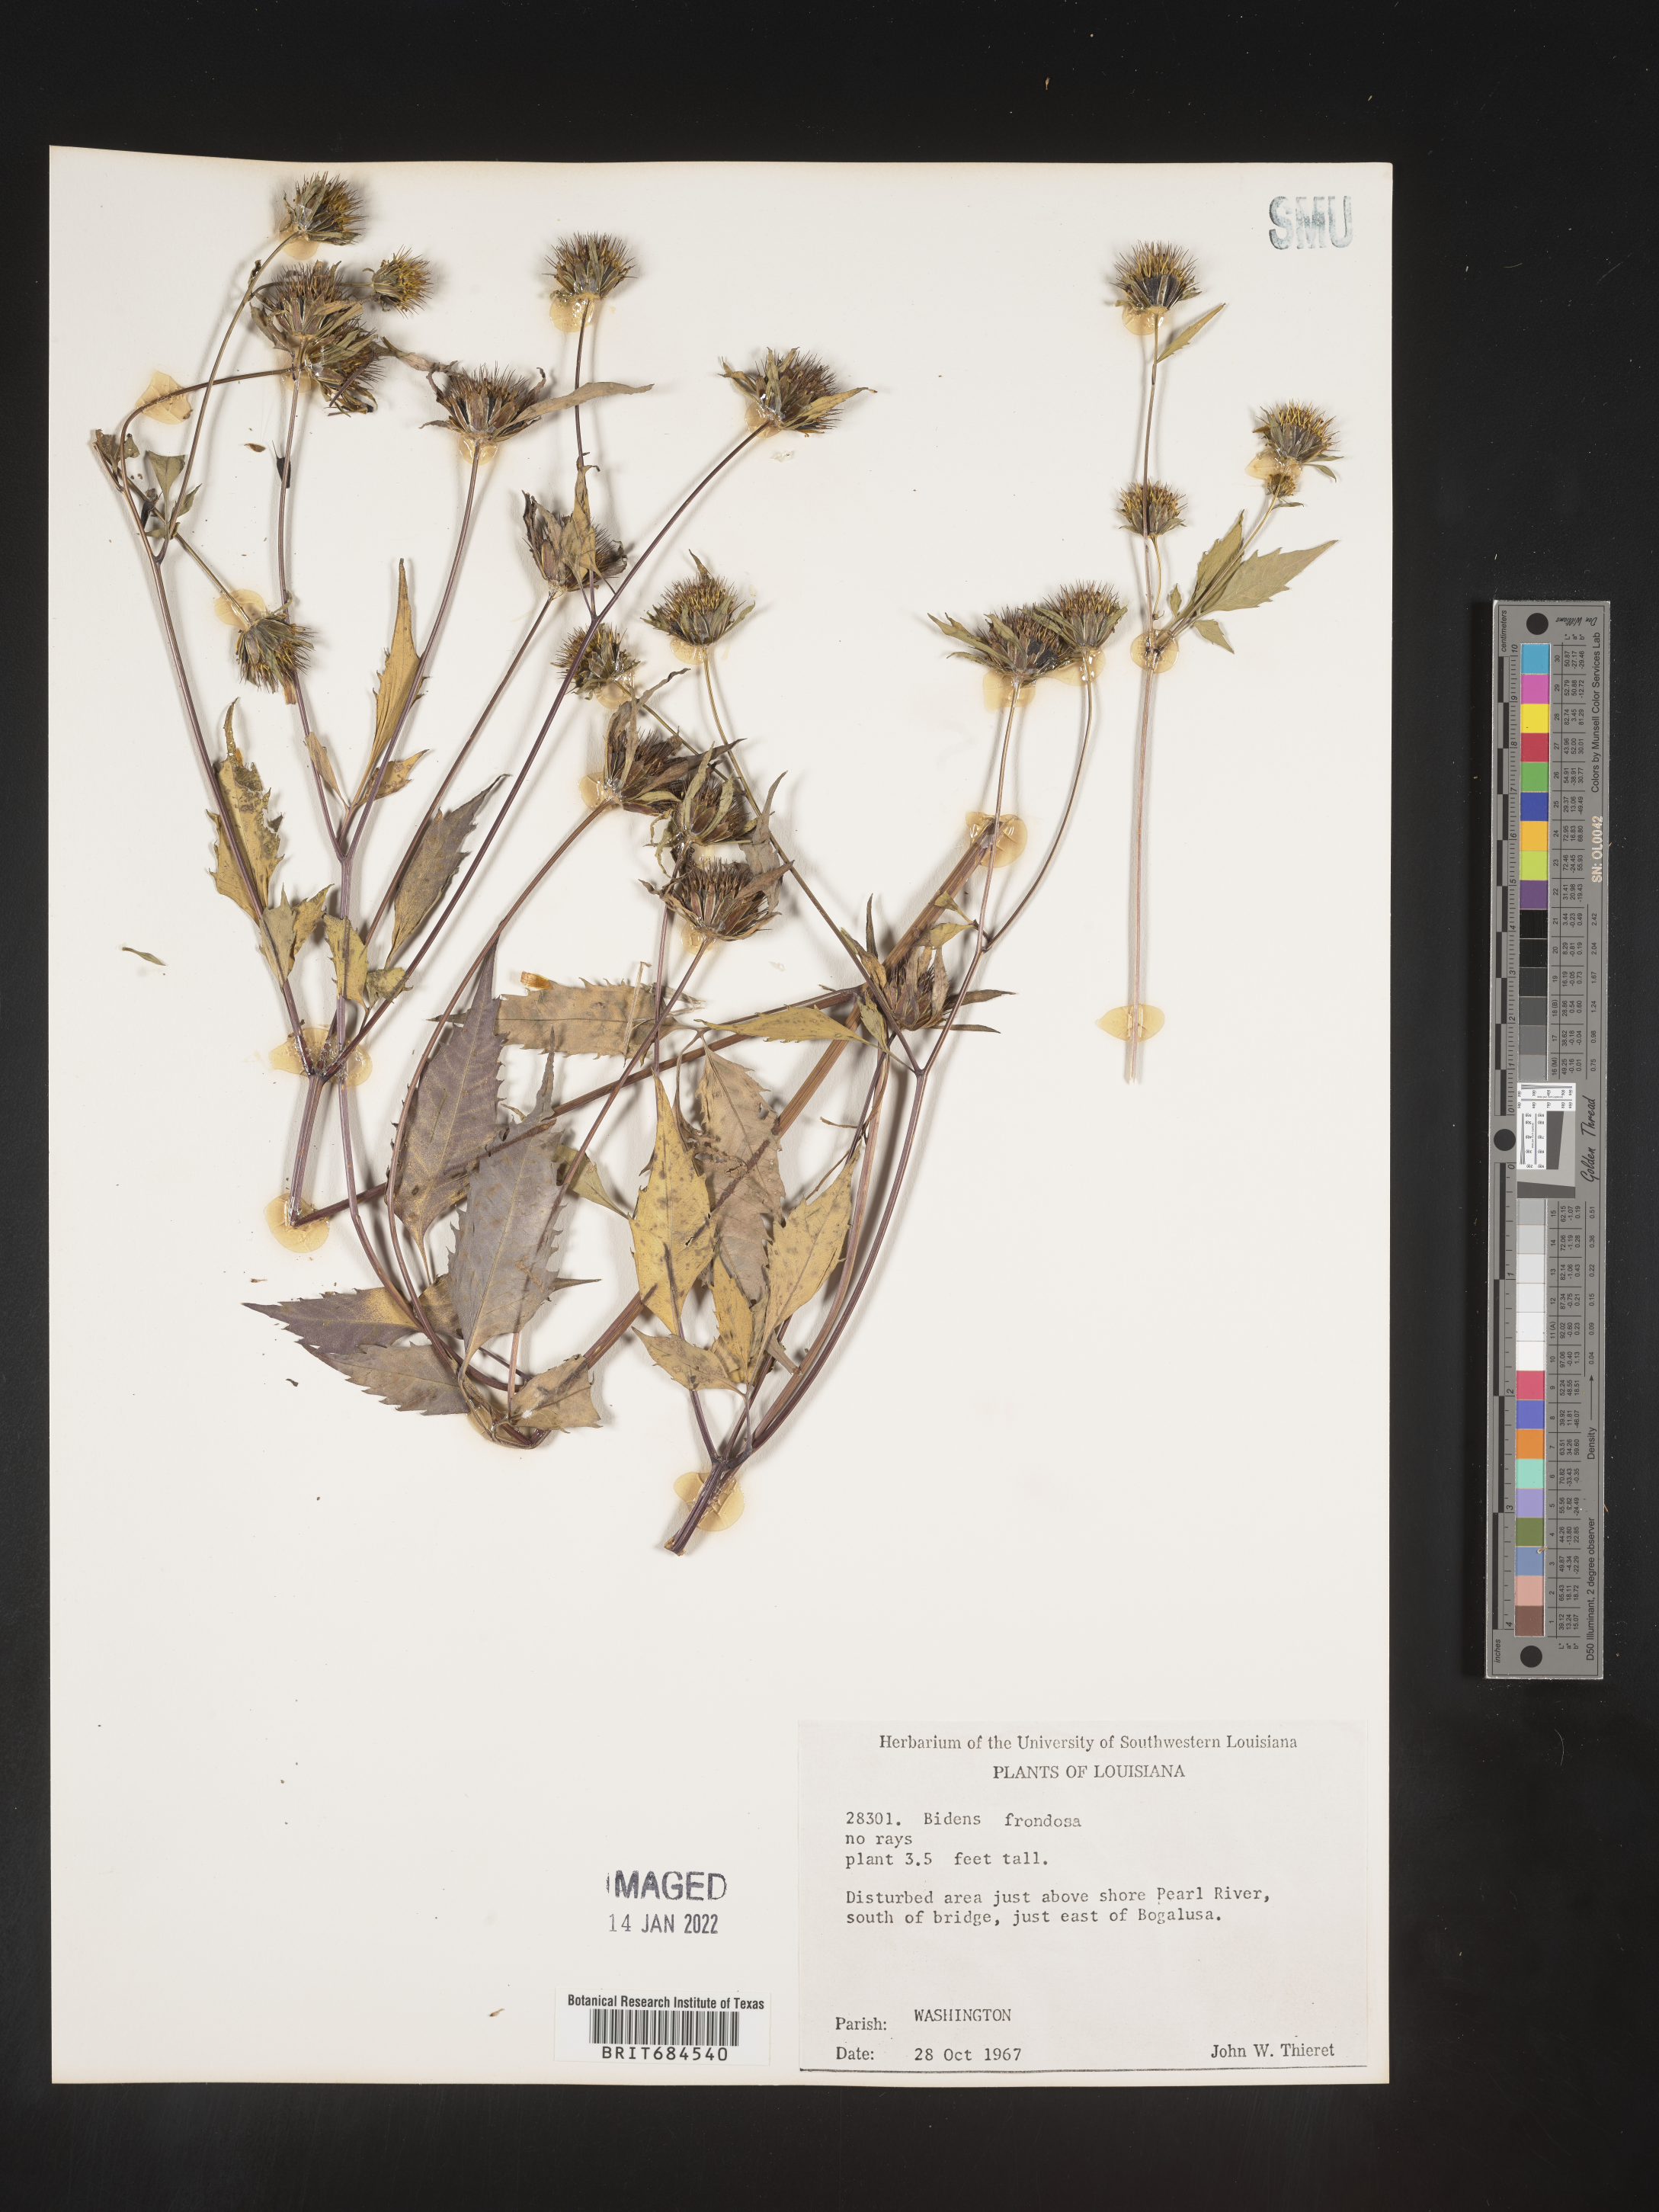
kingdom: Plantae
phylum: Tracheophyta
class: Magnoliopsida
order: Asterales
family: Asteraceae
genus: Bidens
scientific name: Bidens frondosa
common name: Beggarticks
